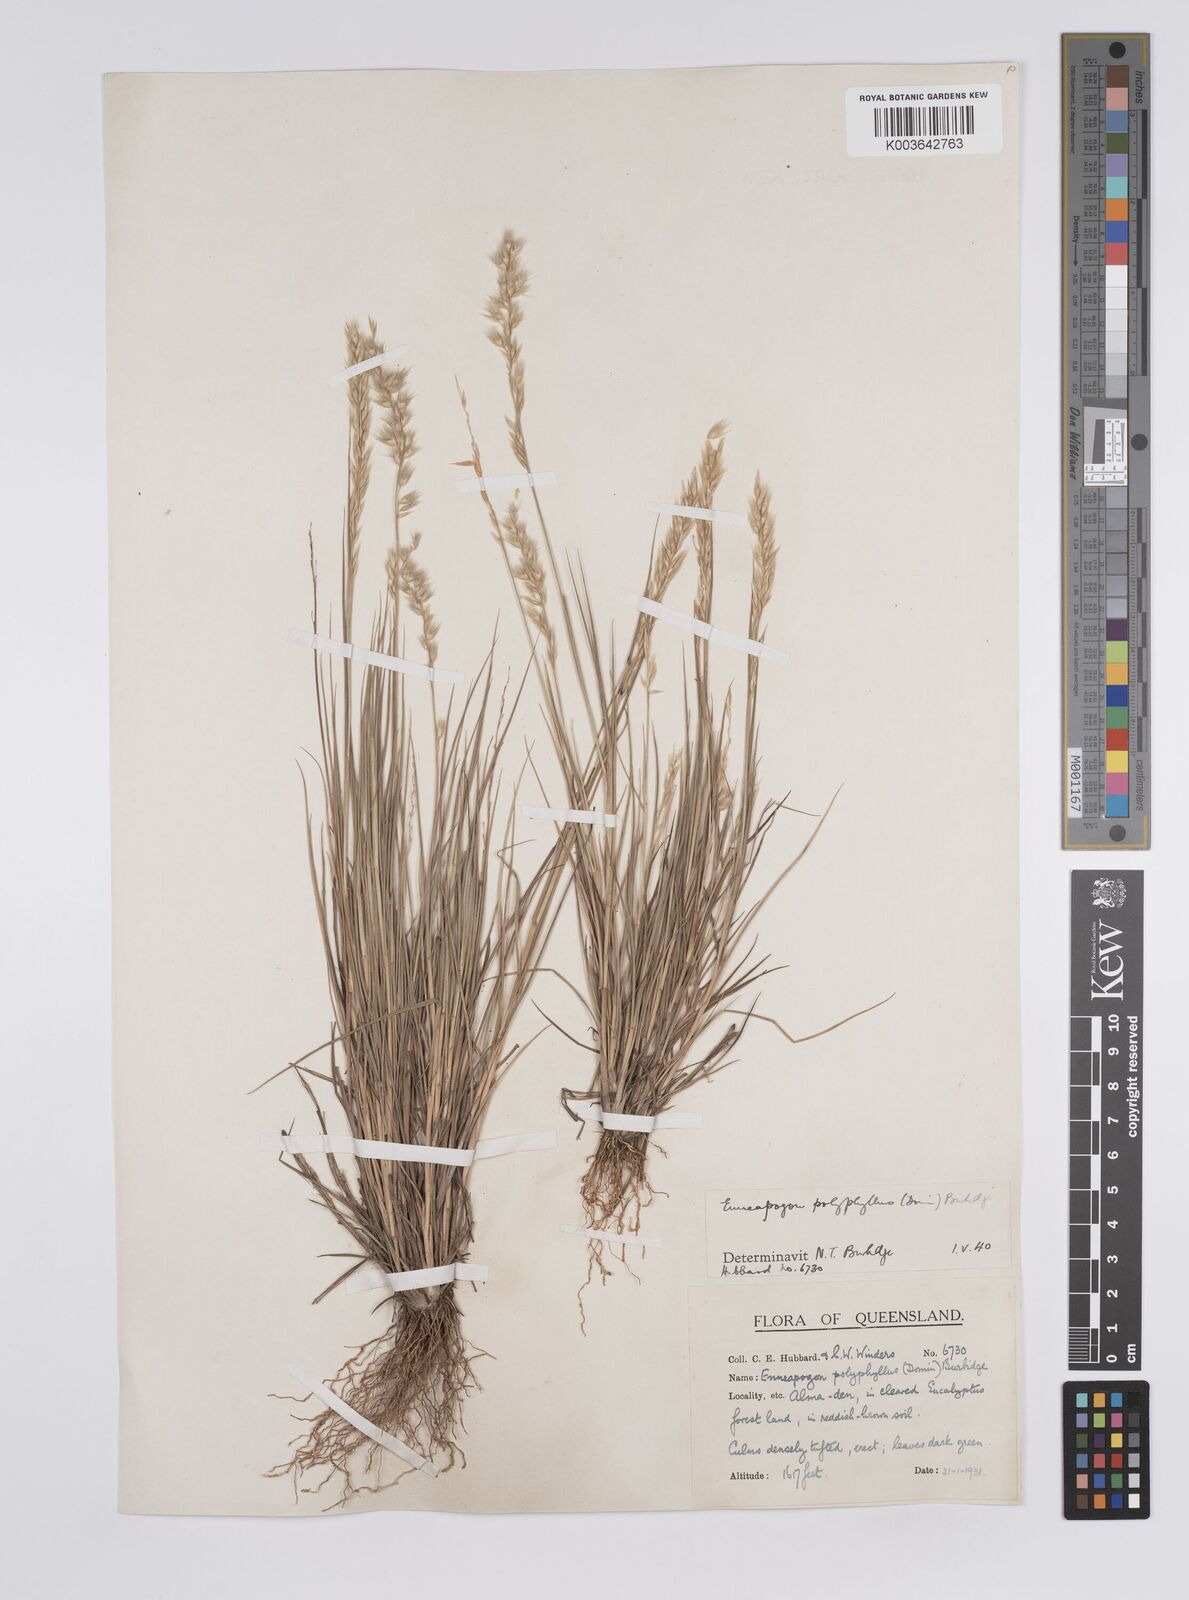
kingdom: Plantae
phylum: Tracheophyta
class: Liliopsida
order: Poales
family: Poaceae
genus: Enneapogon
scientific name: Enneapogon polyphyllus
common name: Leafy nineawn
